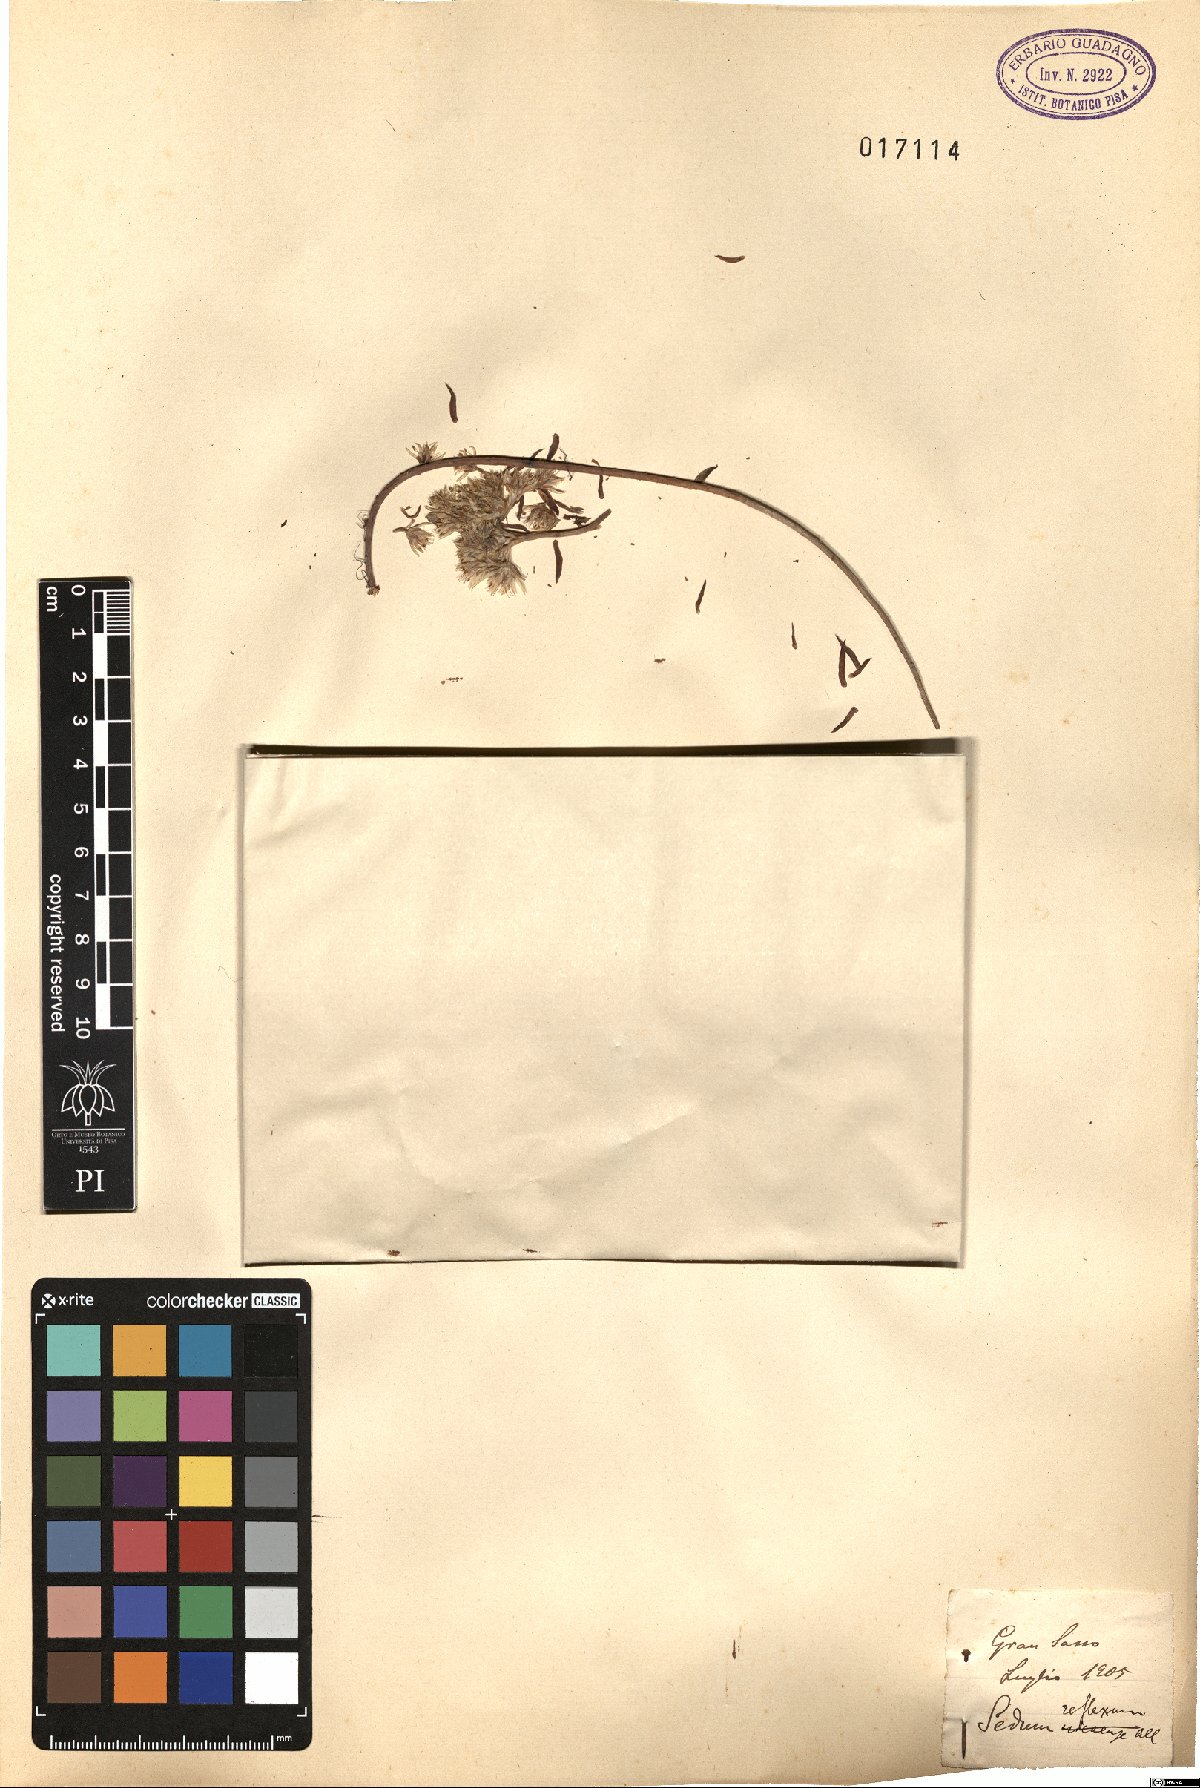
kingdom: Plantae
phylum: Tracheophyta
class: Magnoliopsida
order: Saxifragales
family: Crassulaceae
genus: Petrosedum
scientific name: Petrosedum rupestre
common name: Jenny's stonecrop
